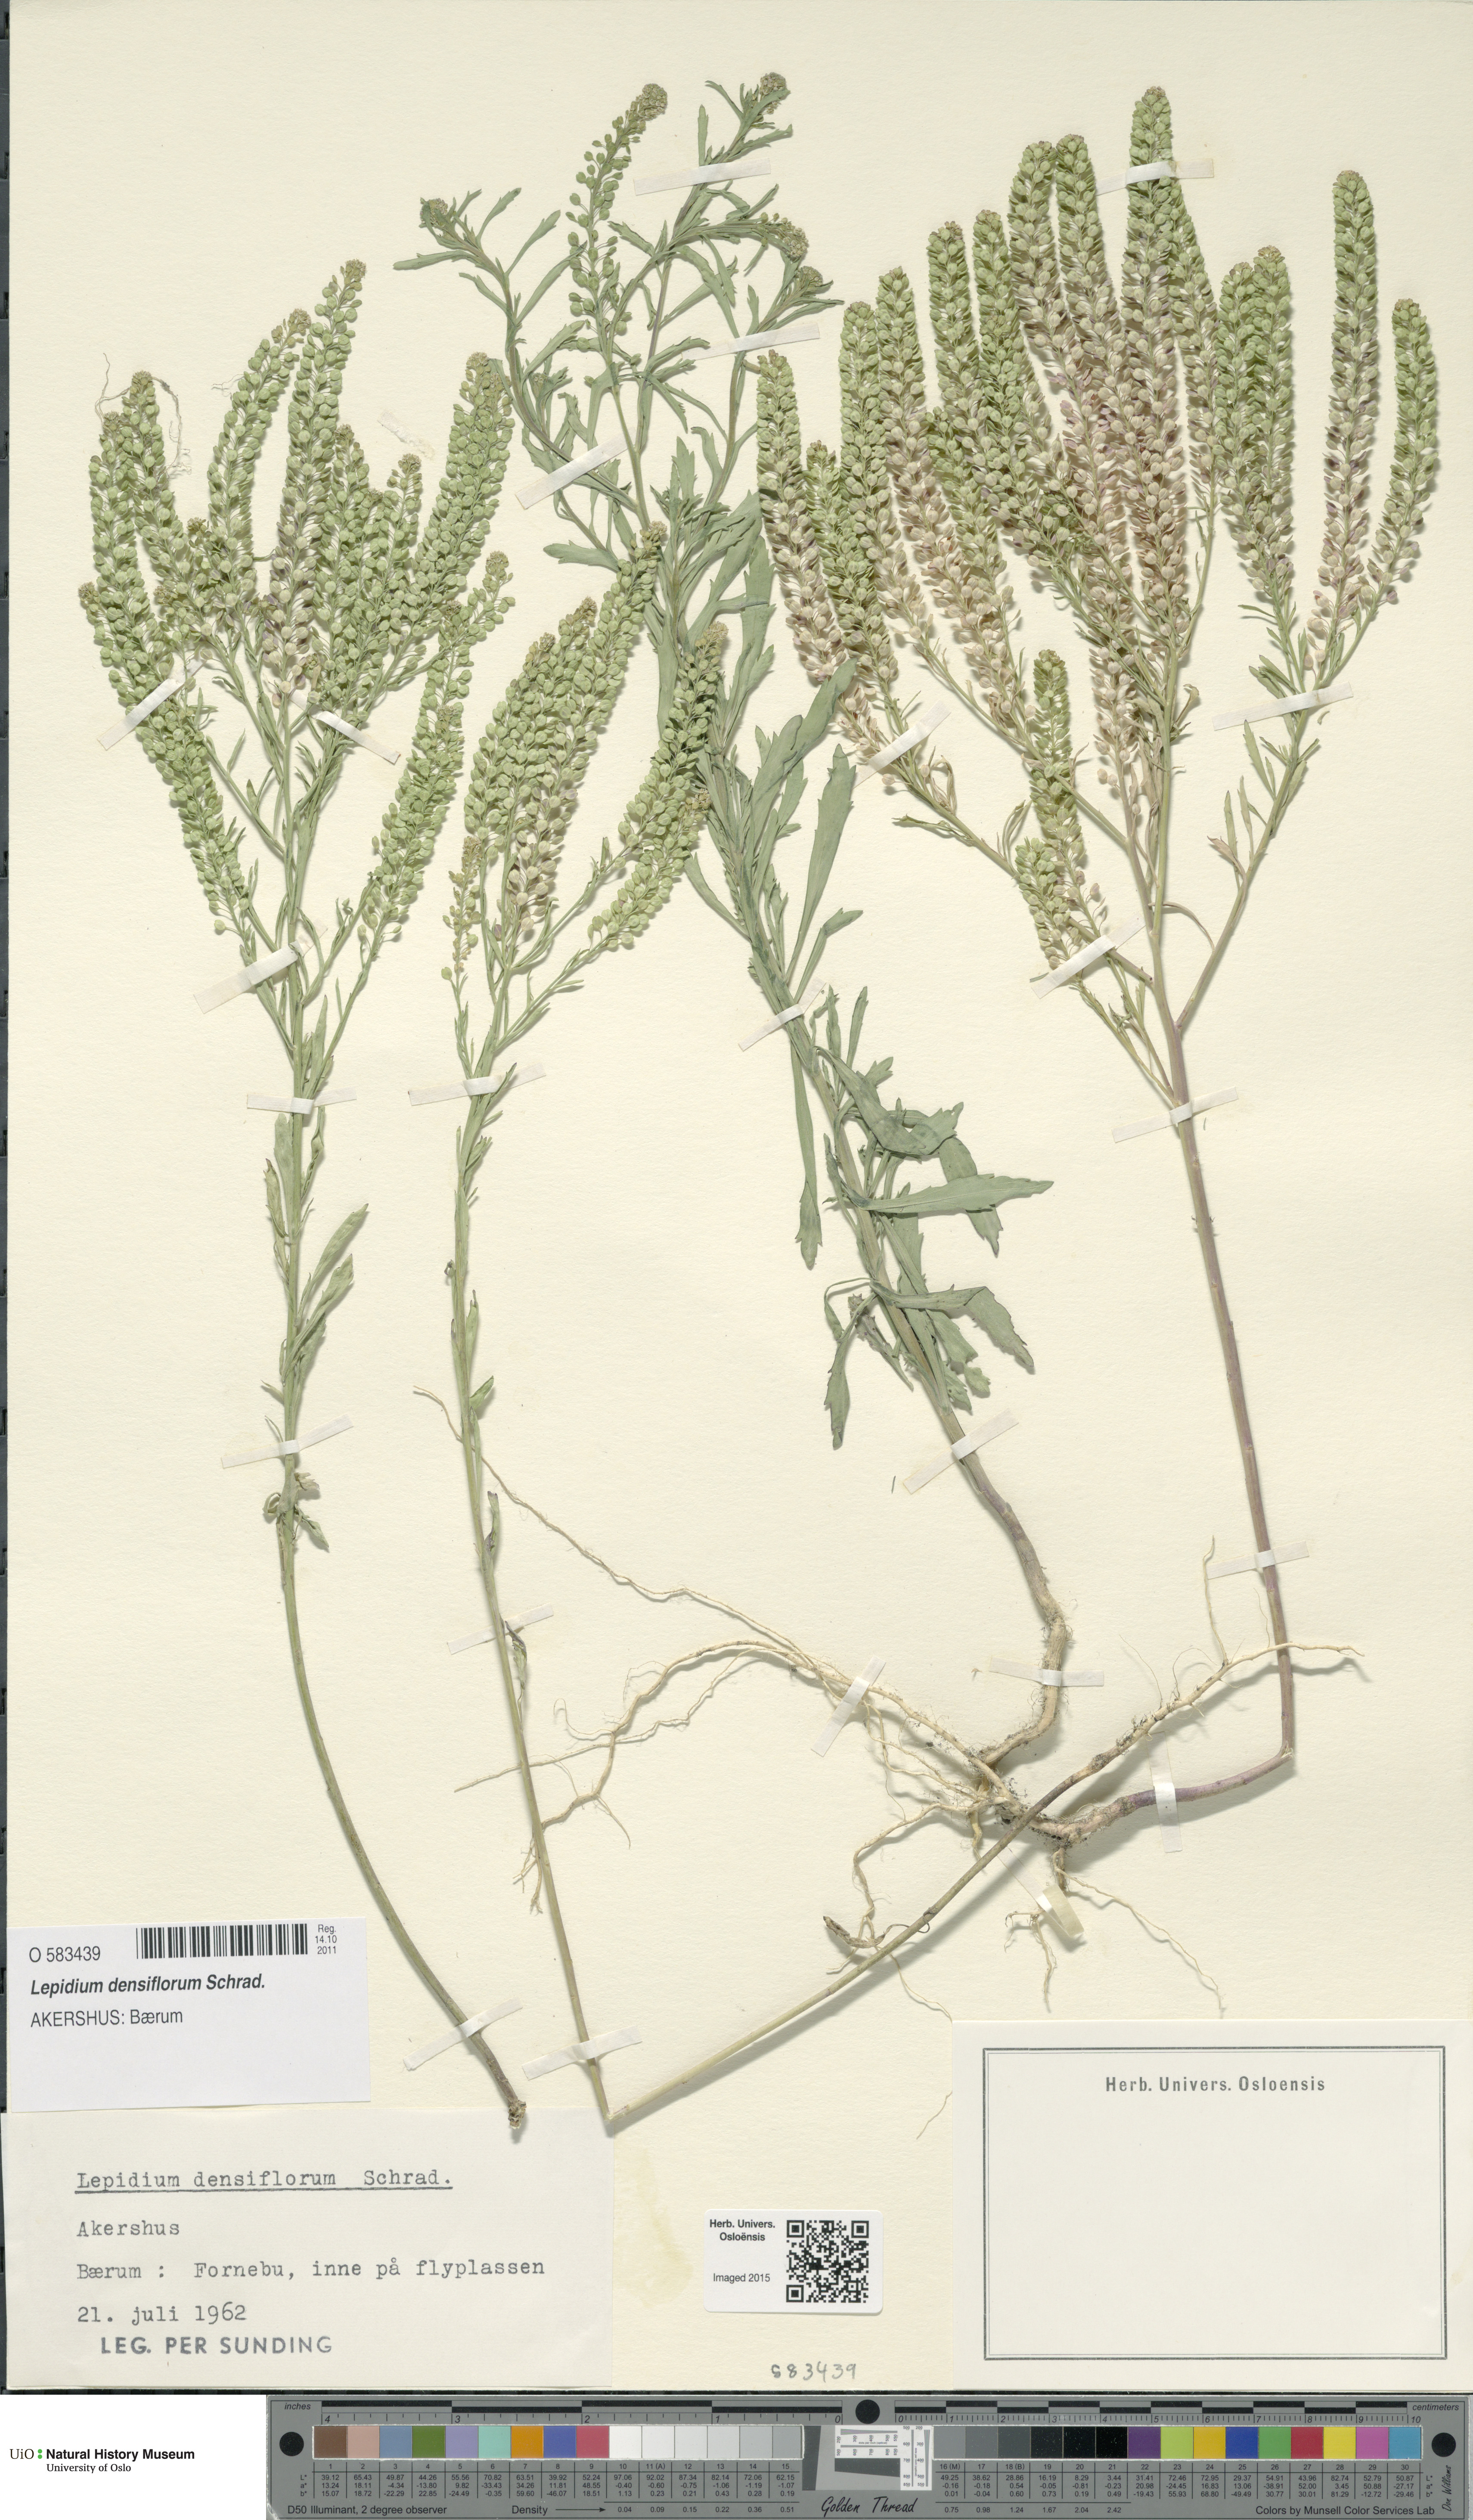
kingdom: Plantae
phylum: Tracheophyta
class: Magnoliopsida
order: Brassicales
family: Brassicaceae
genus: Lepidium
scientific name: Lepidium densiflorum
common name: Miner's pepperwort
